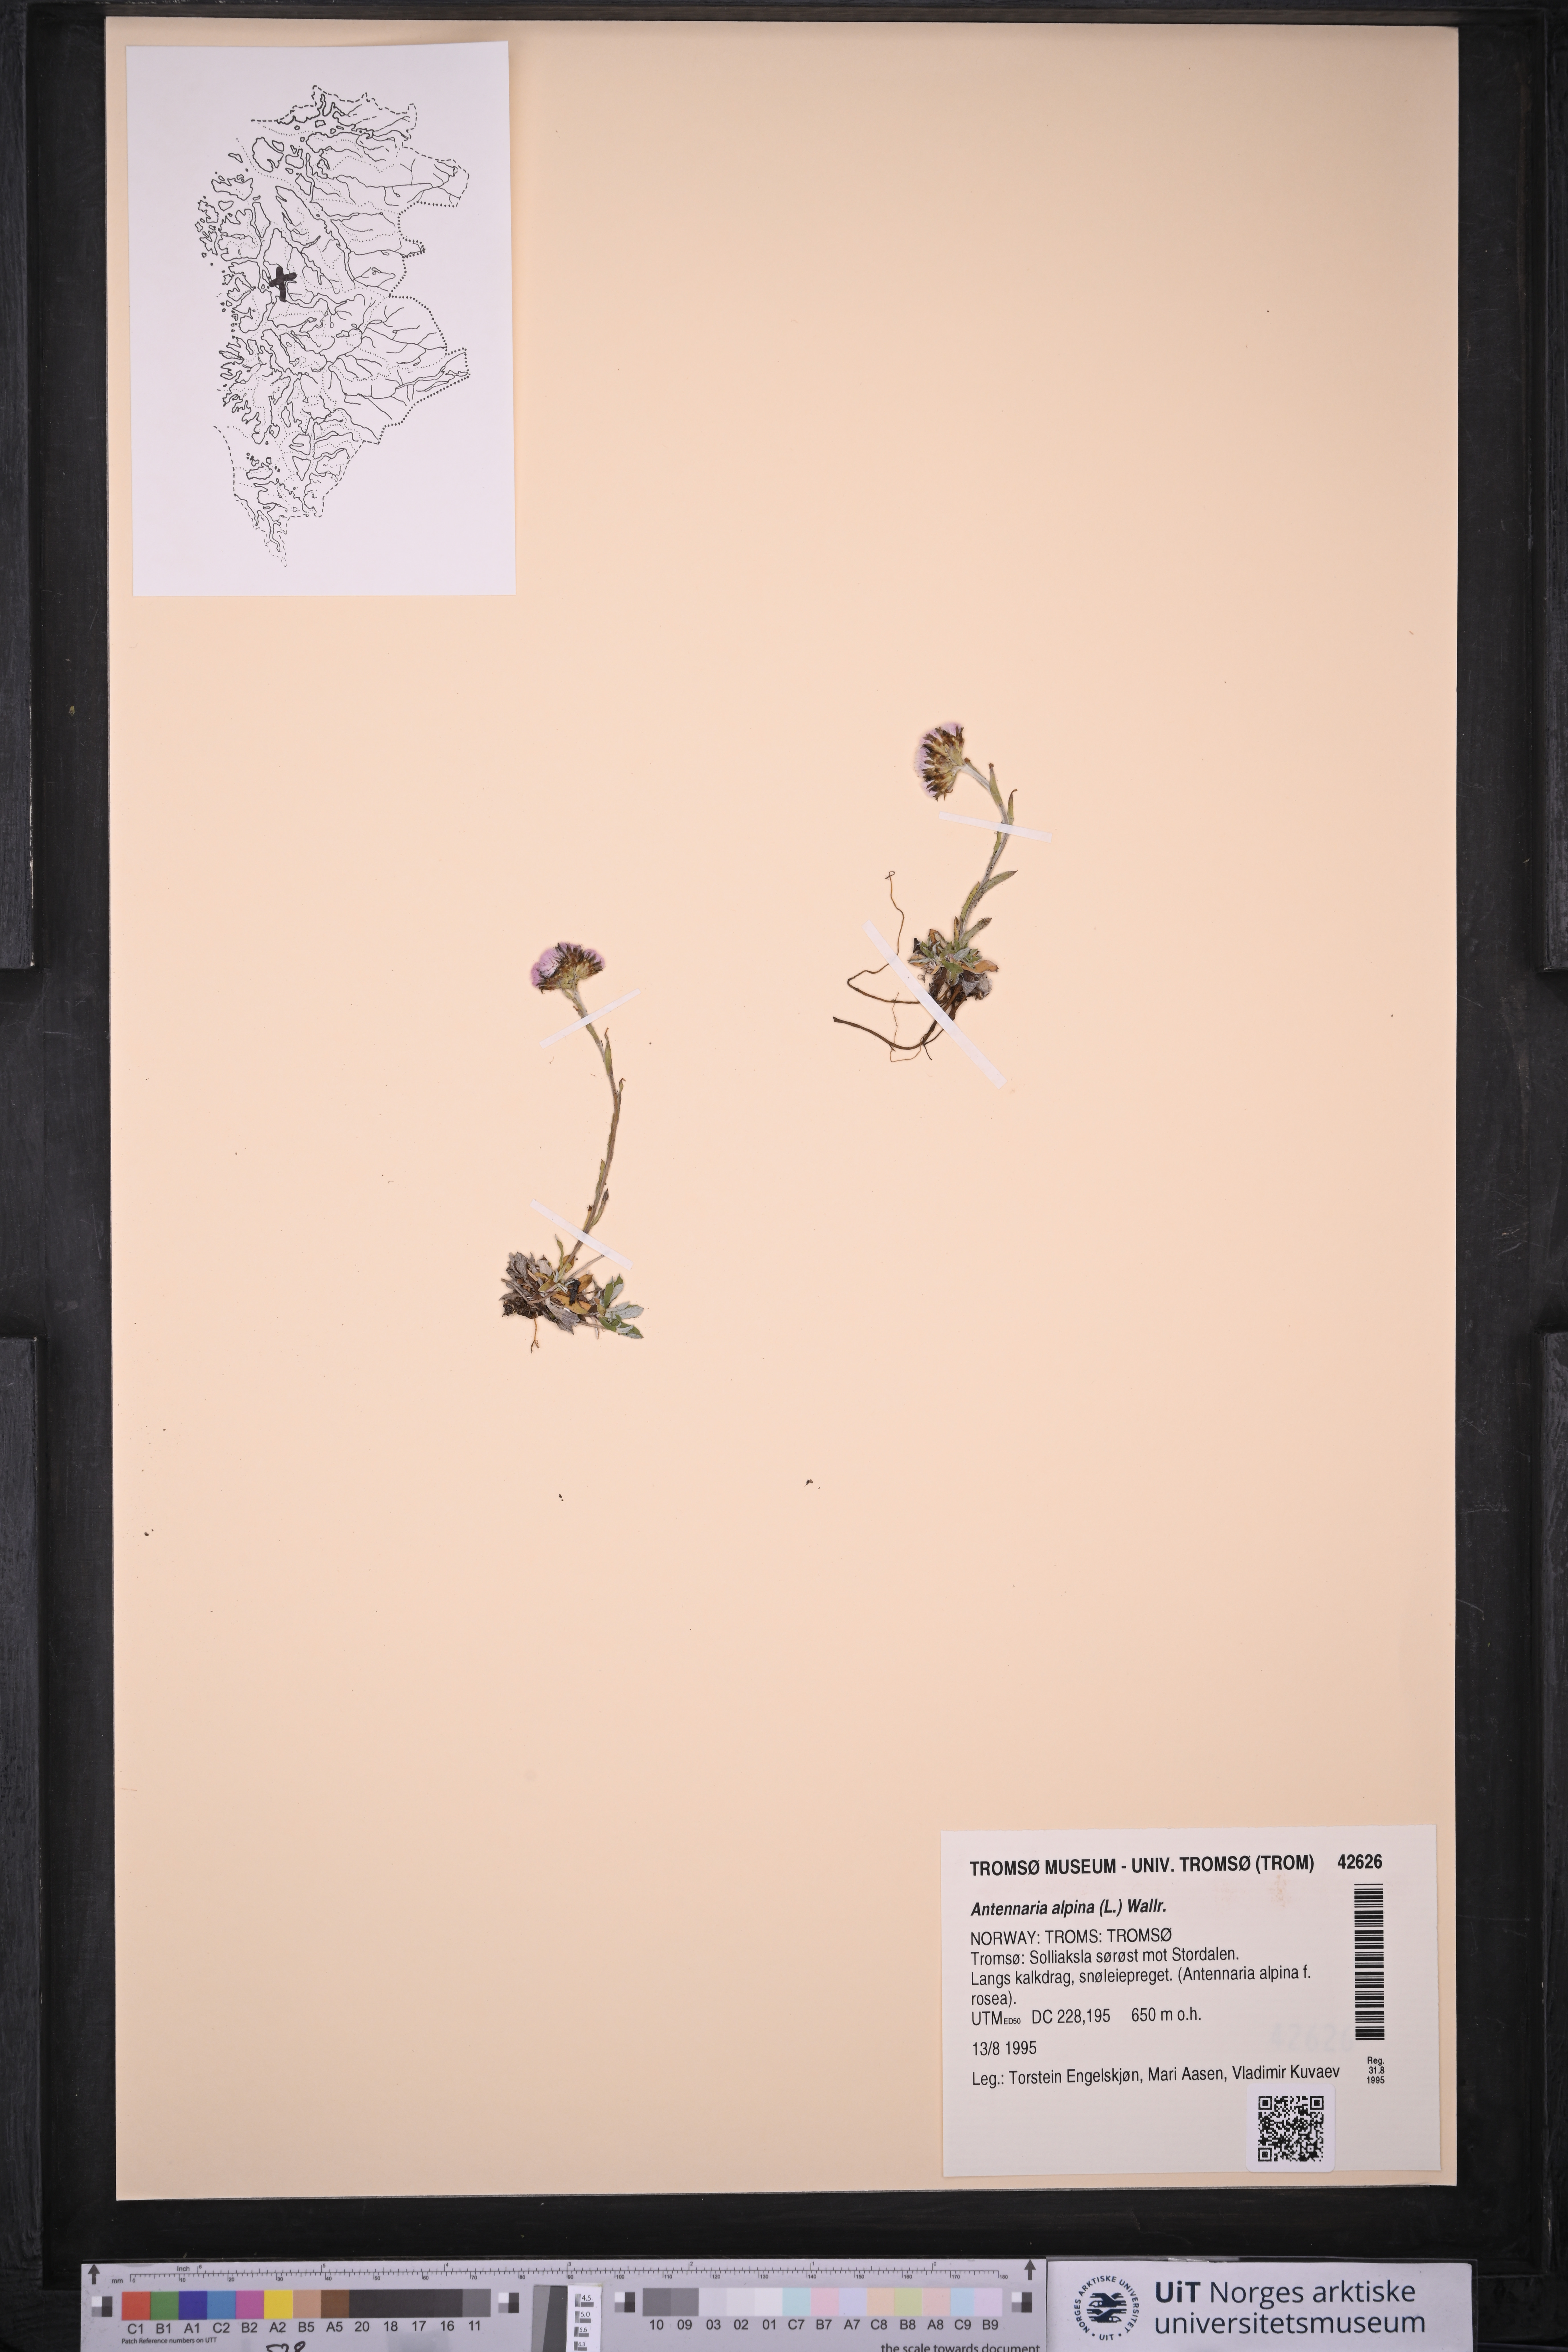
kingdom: Plantae
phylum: Tracheophyta
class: Magnoliopsida
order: Asterales
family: Asteraceae
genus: Antennaria
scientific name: Antennaria alpina
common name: Alpine pussytoes
